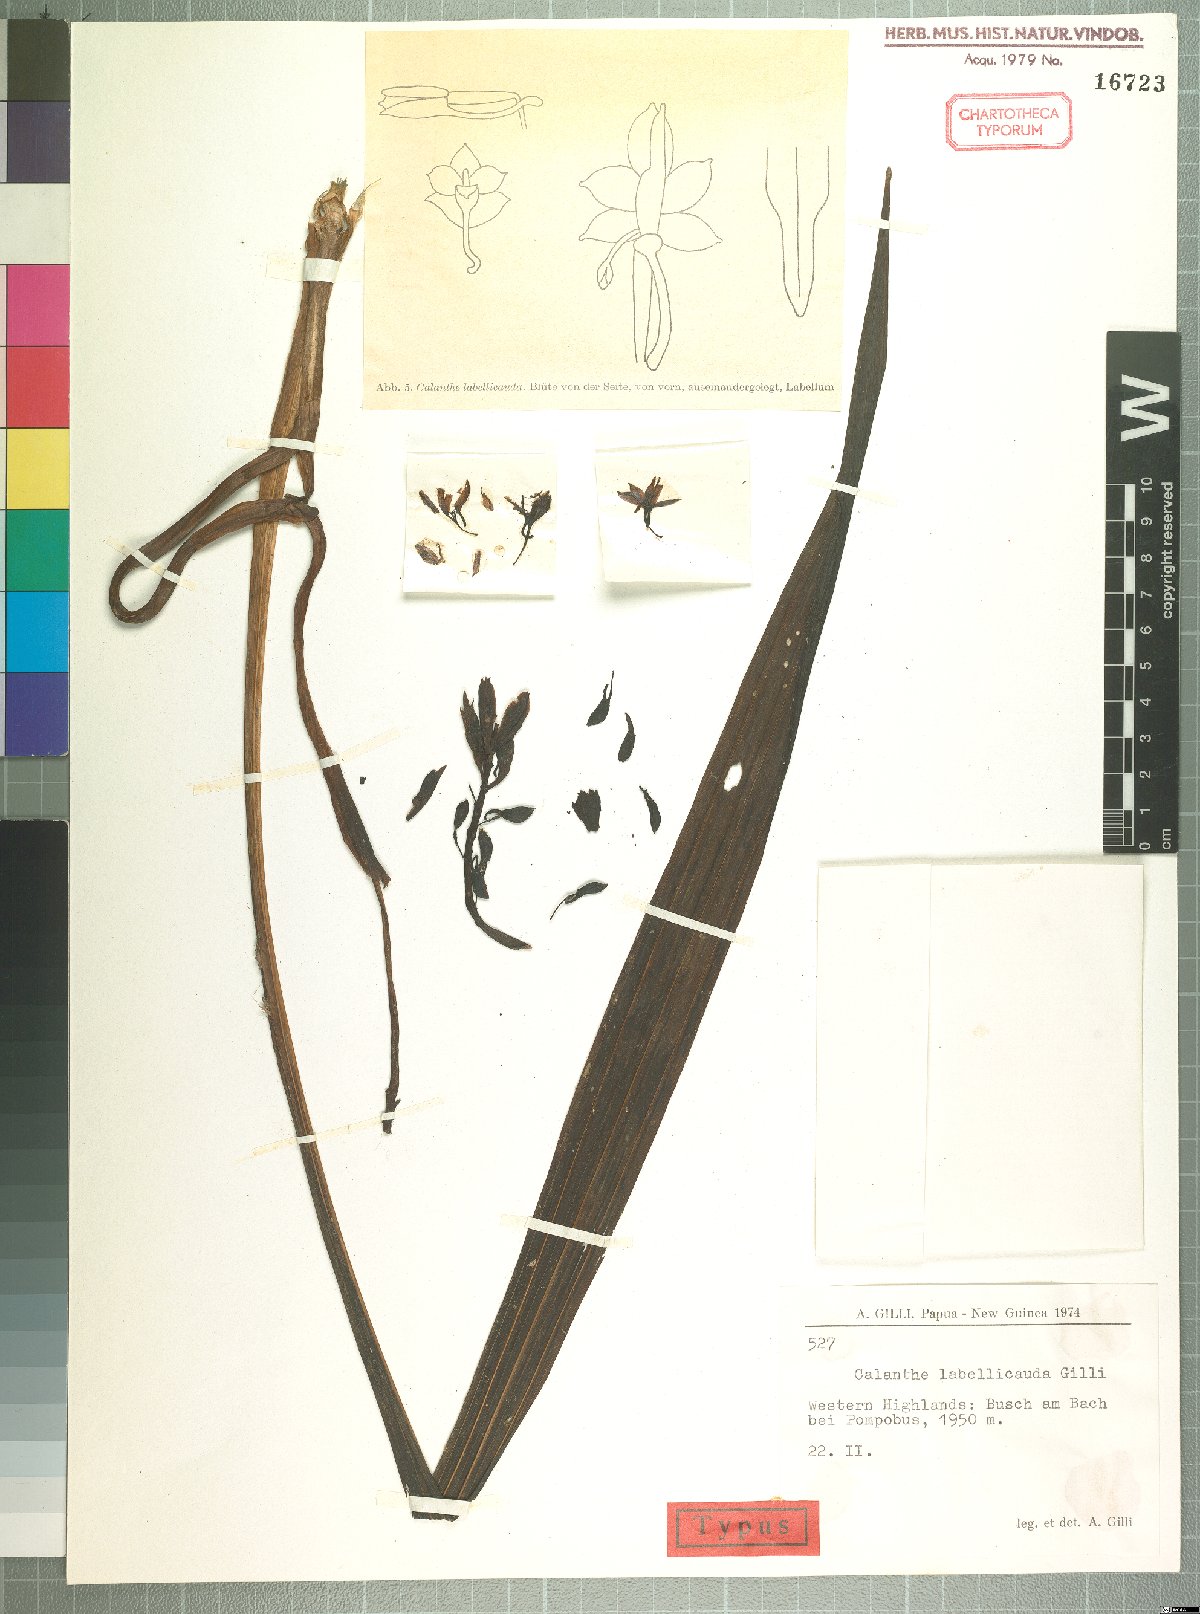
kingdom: Plantae
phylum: Tracheophyta
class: Liliopsida
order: Asparagales
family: Orchidaceae
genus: Calanthe
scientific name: Calanthe leucosceptrum
